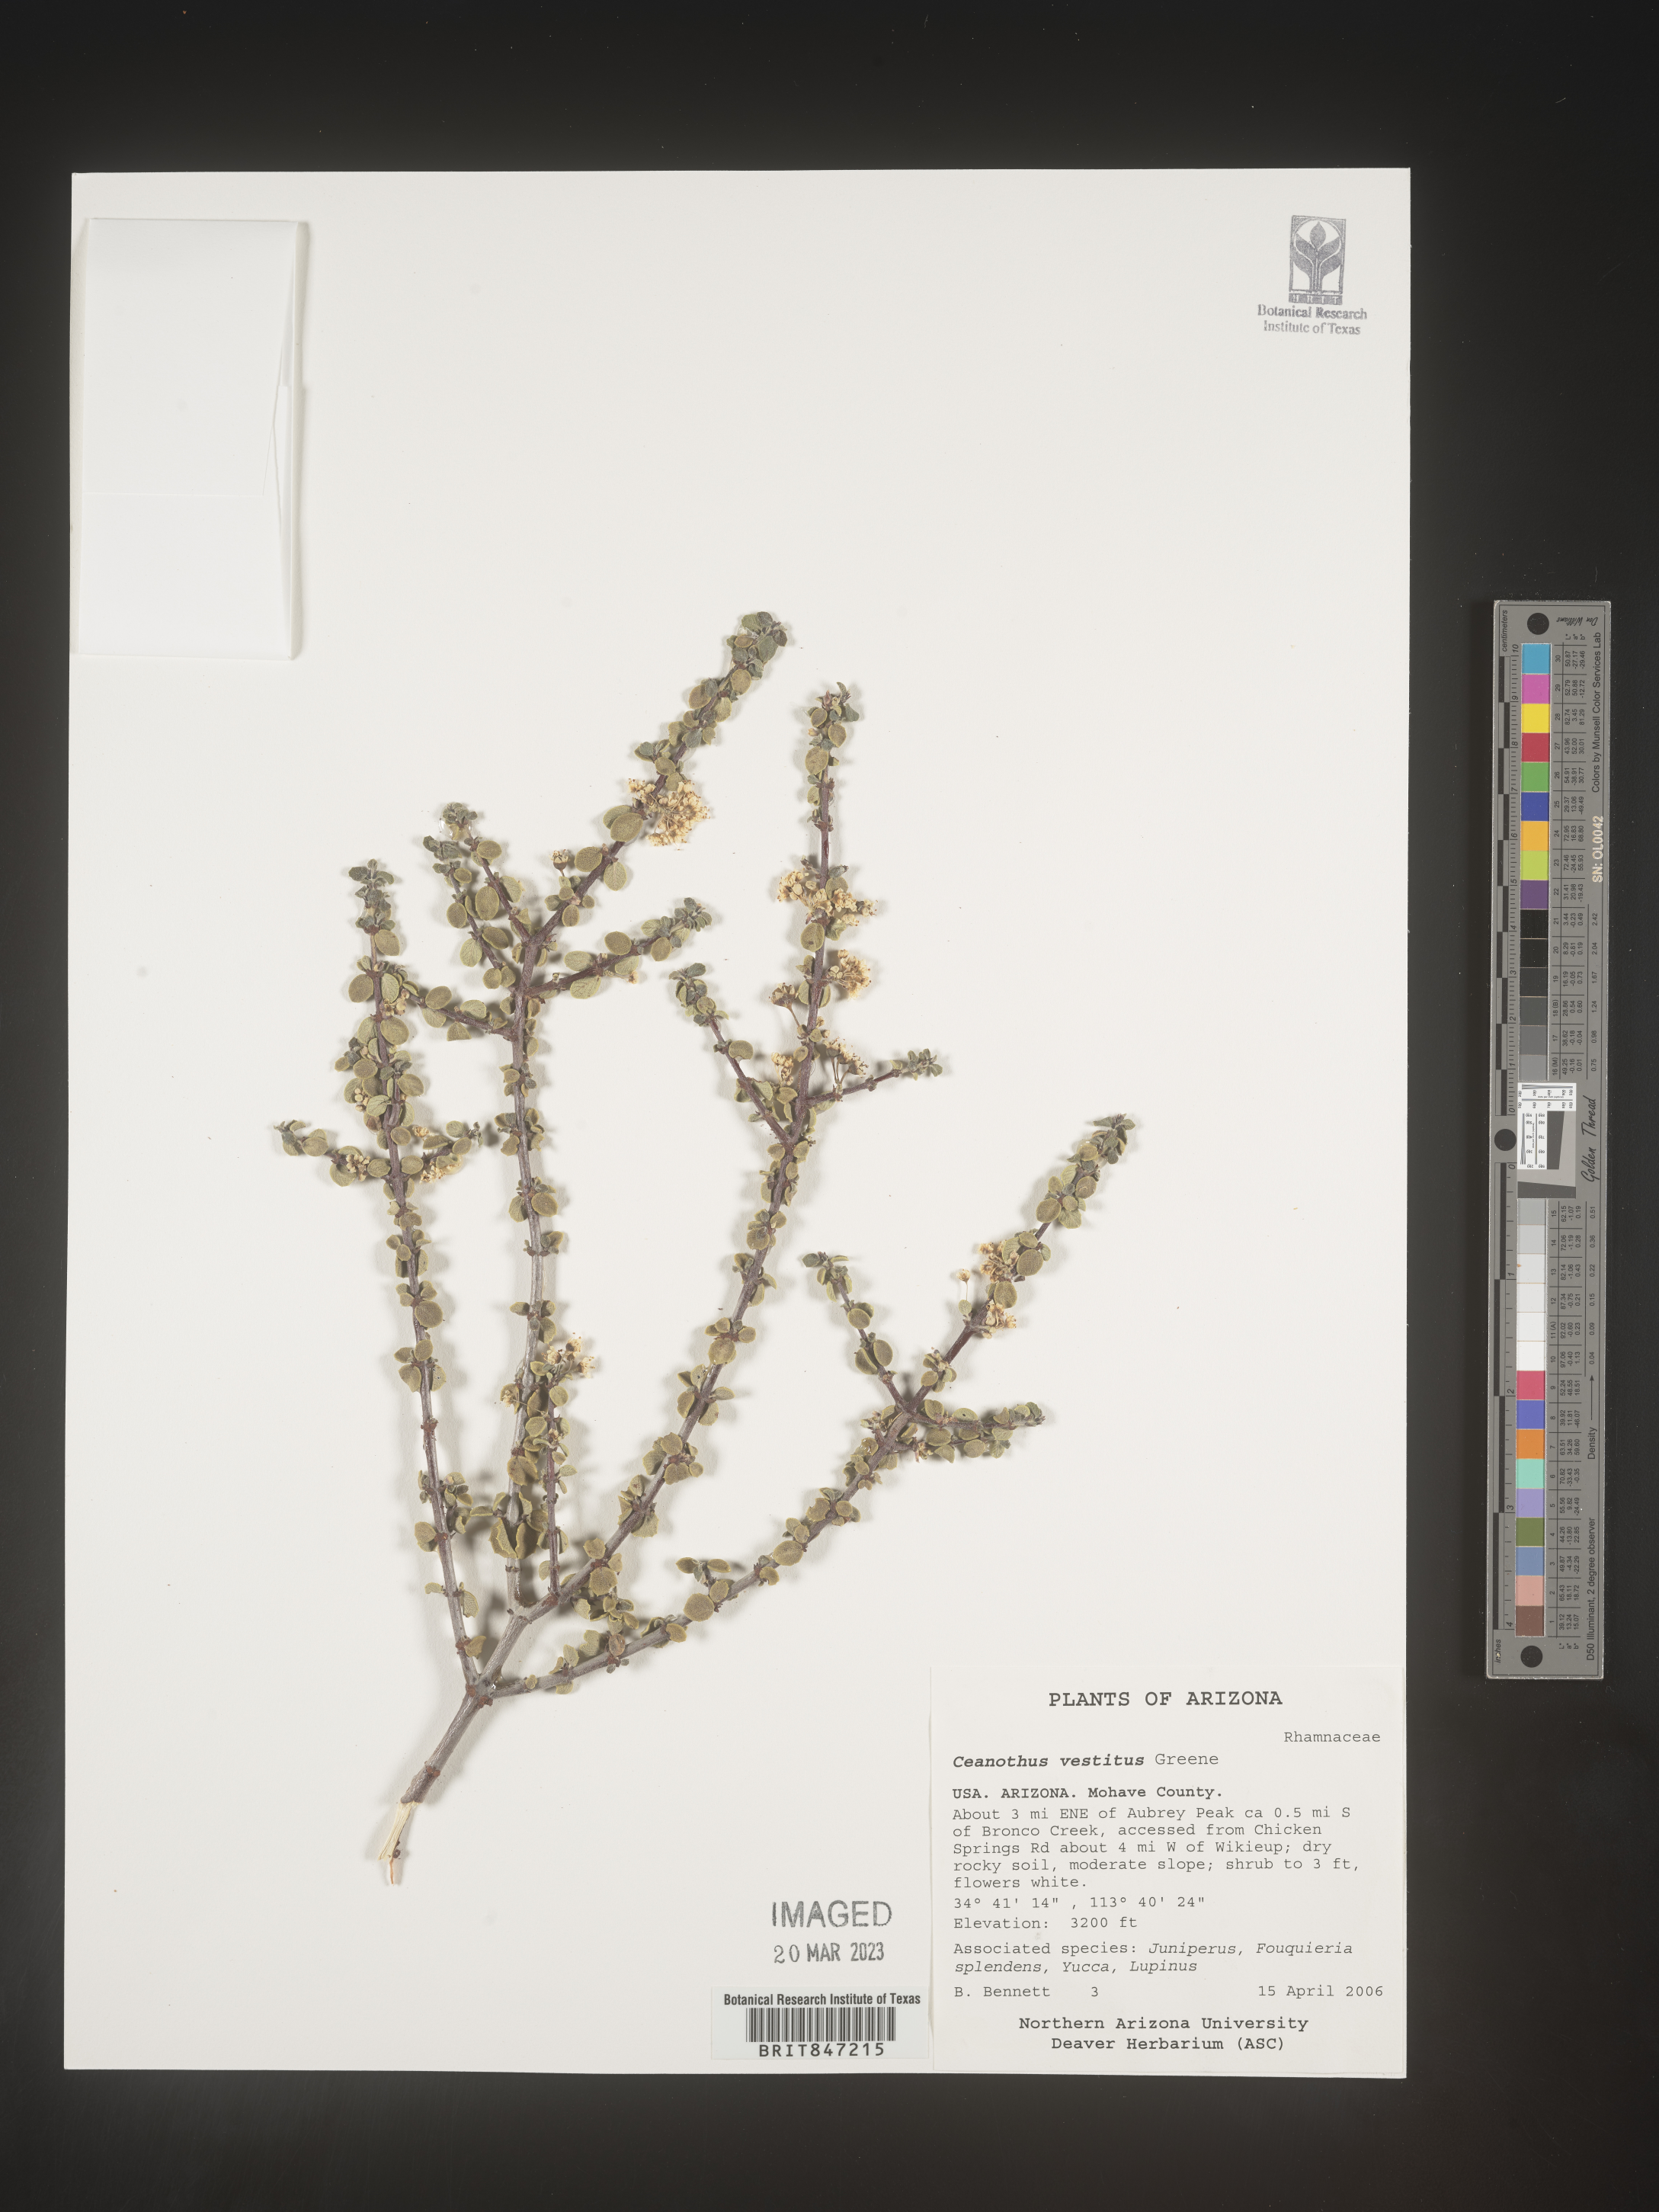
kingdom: Plantae
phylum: Tracheophyta
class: Magnoliopsida
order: Rosales
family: Rhamnaceae
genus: Ceanothus
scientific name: Ceanothus
